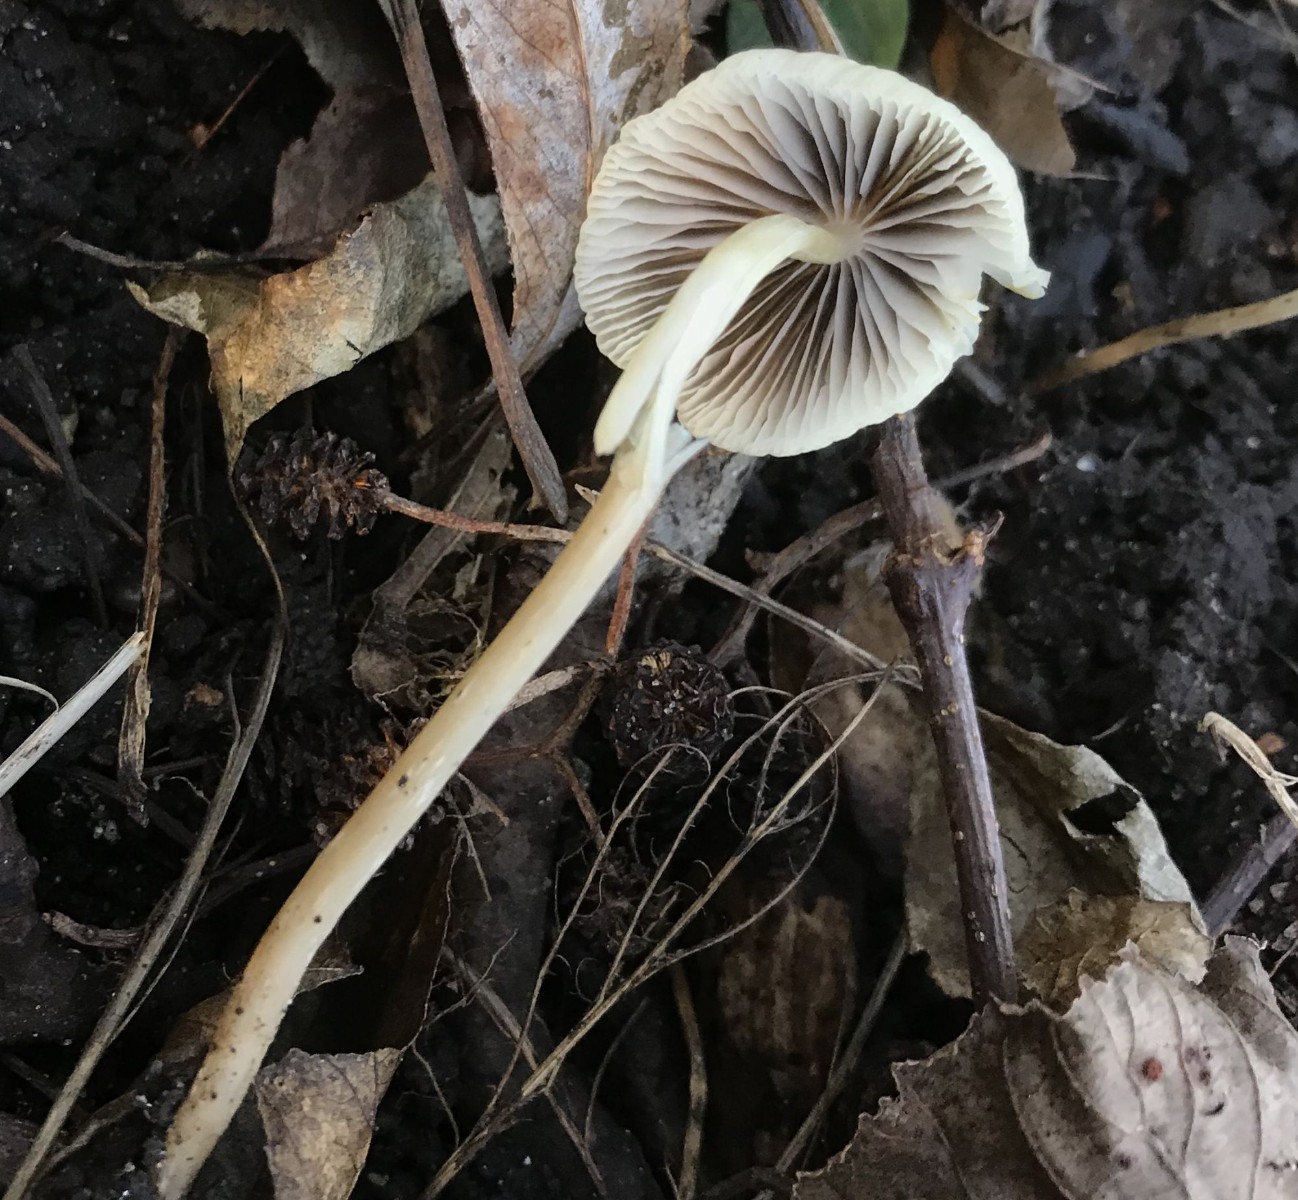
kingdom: Fungi
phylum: Basidiomycota
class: Agaricomycetes
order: Agaricales
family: Psathyrellaceae
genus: Psathyrella
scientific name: Psathyrella
